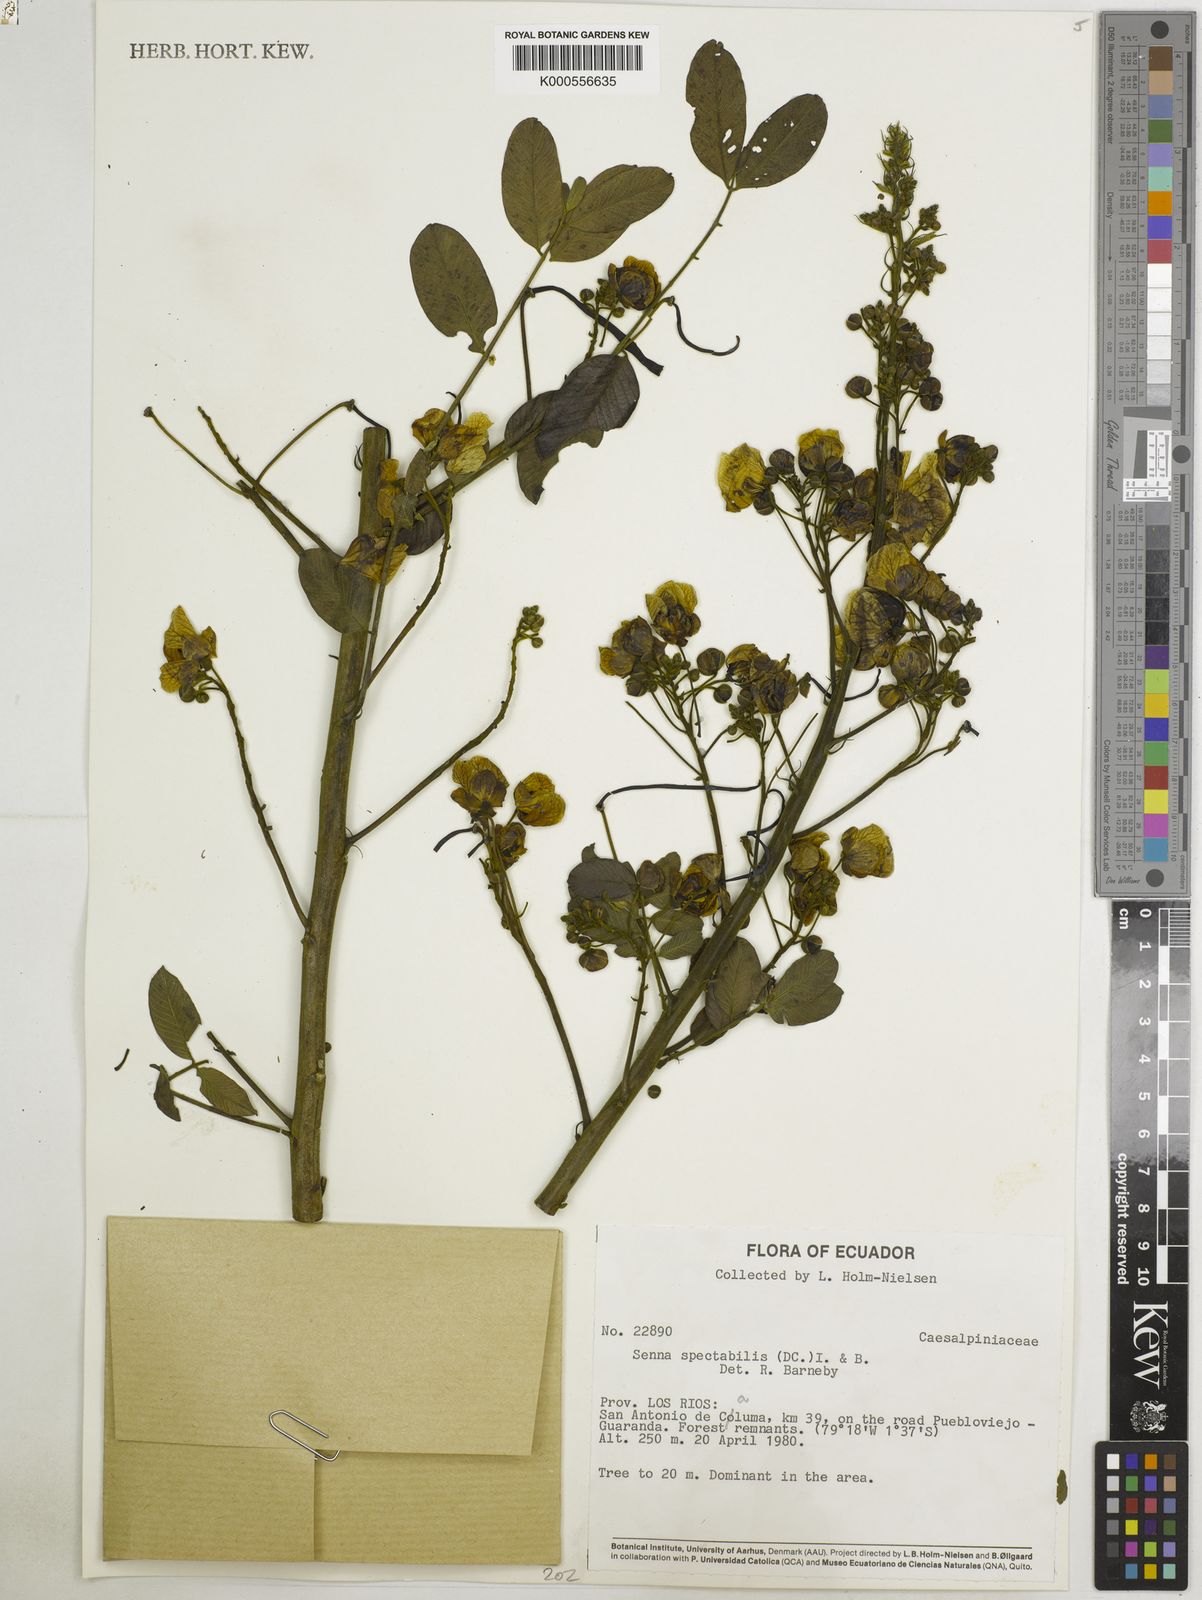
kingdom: Plantae
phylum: Tracheophyta
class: Magnoliopsida
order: Fabales
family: Fabaceae
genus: Senna
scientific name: Senna spectabilis
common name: Casia amarilla
